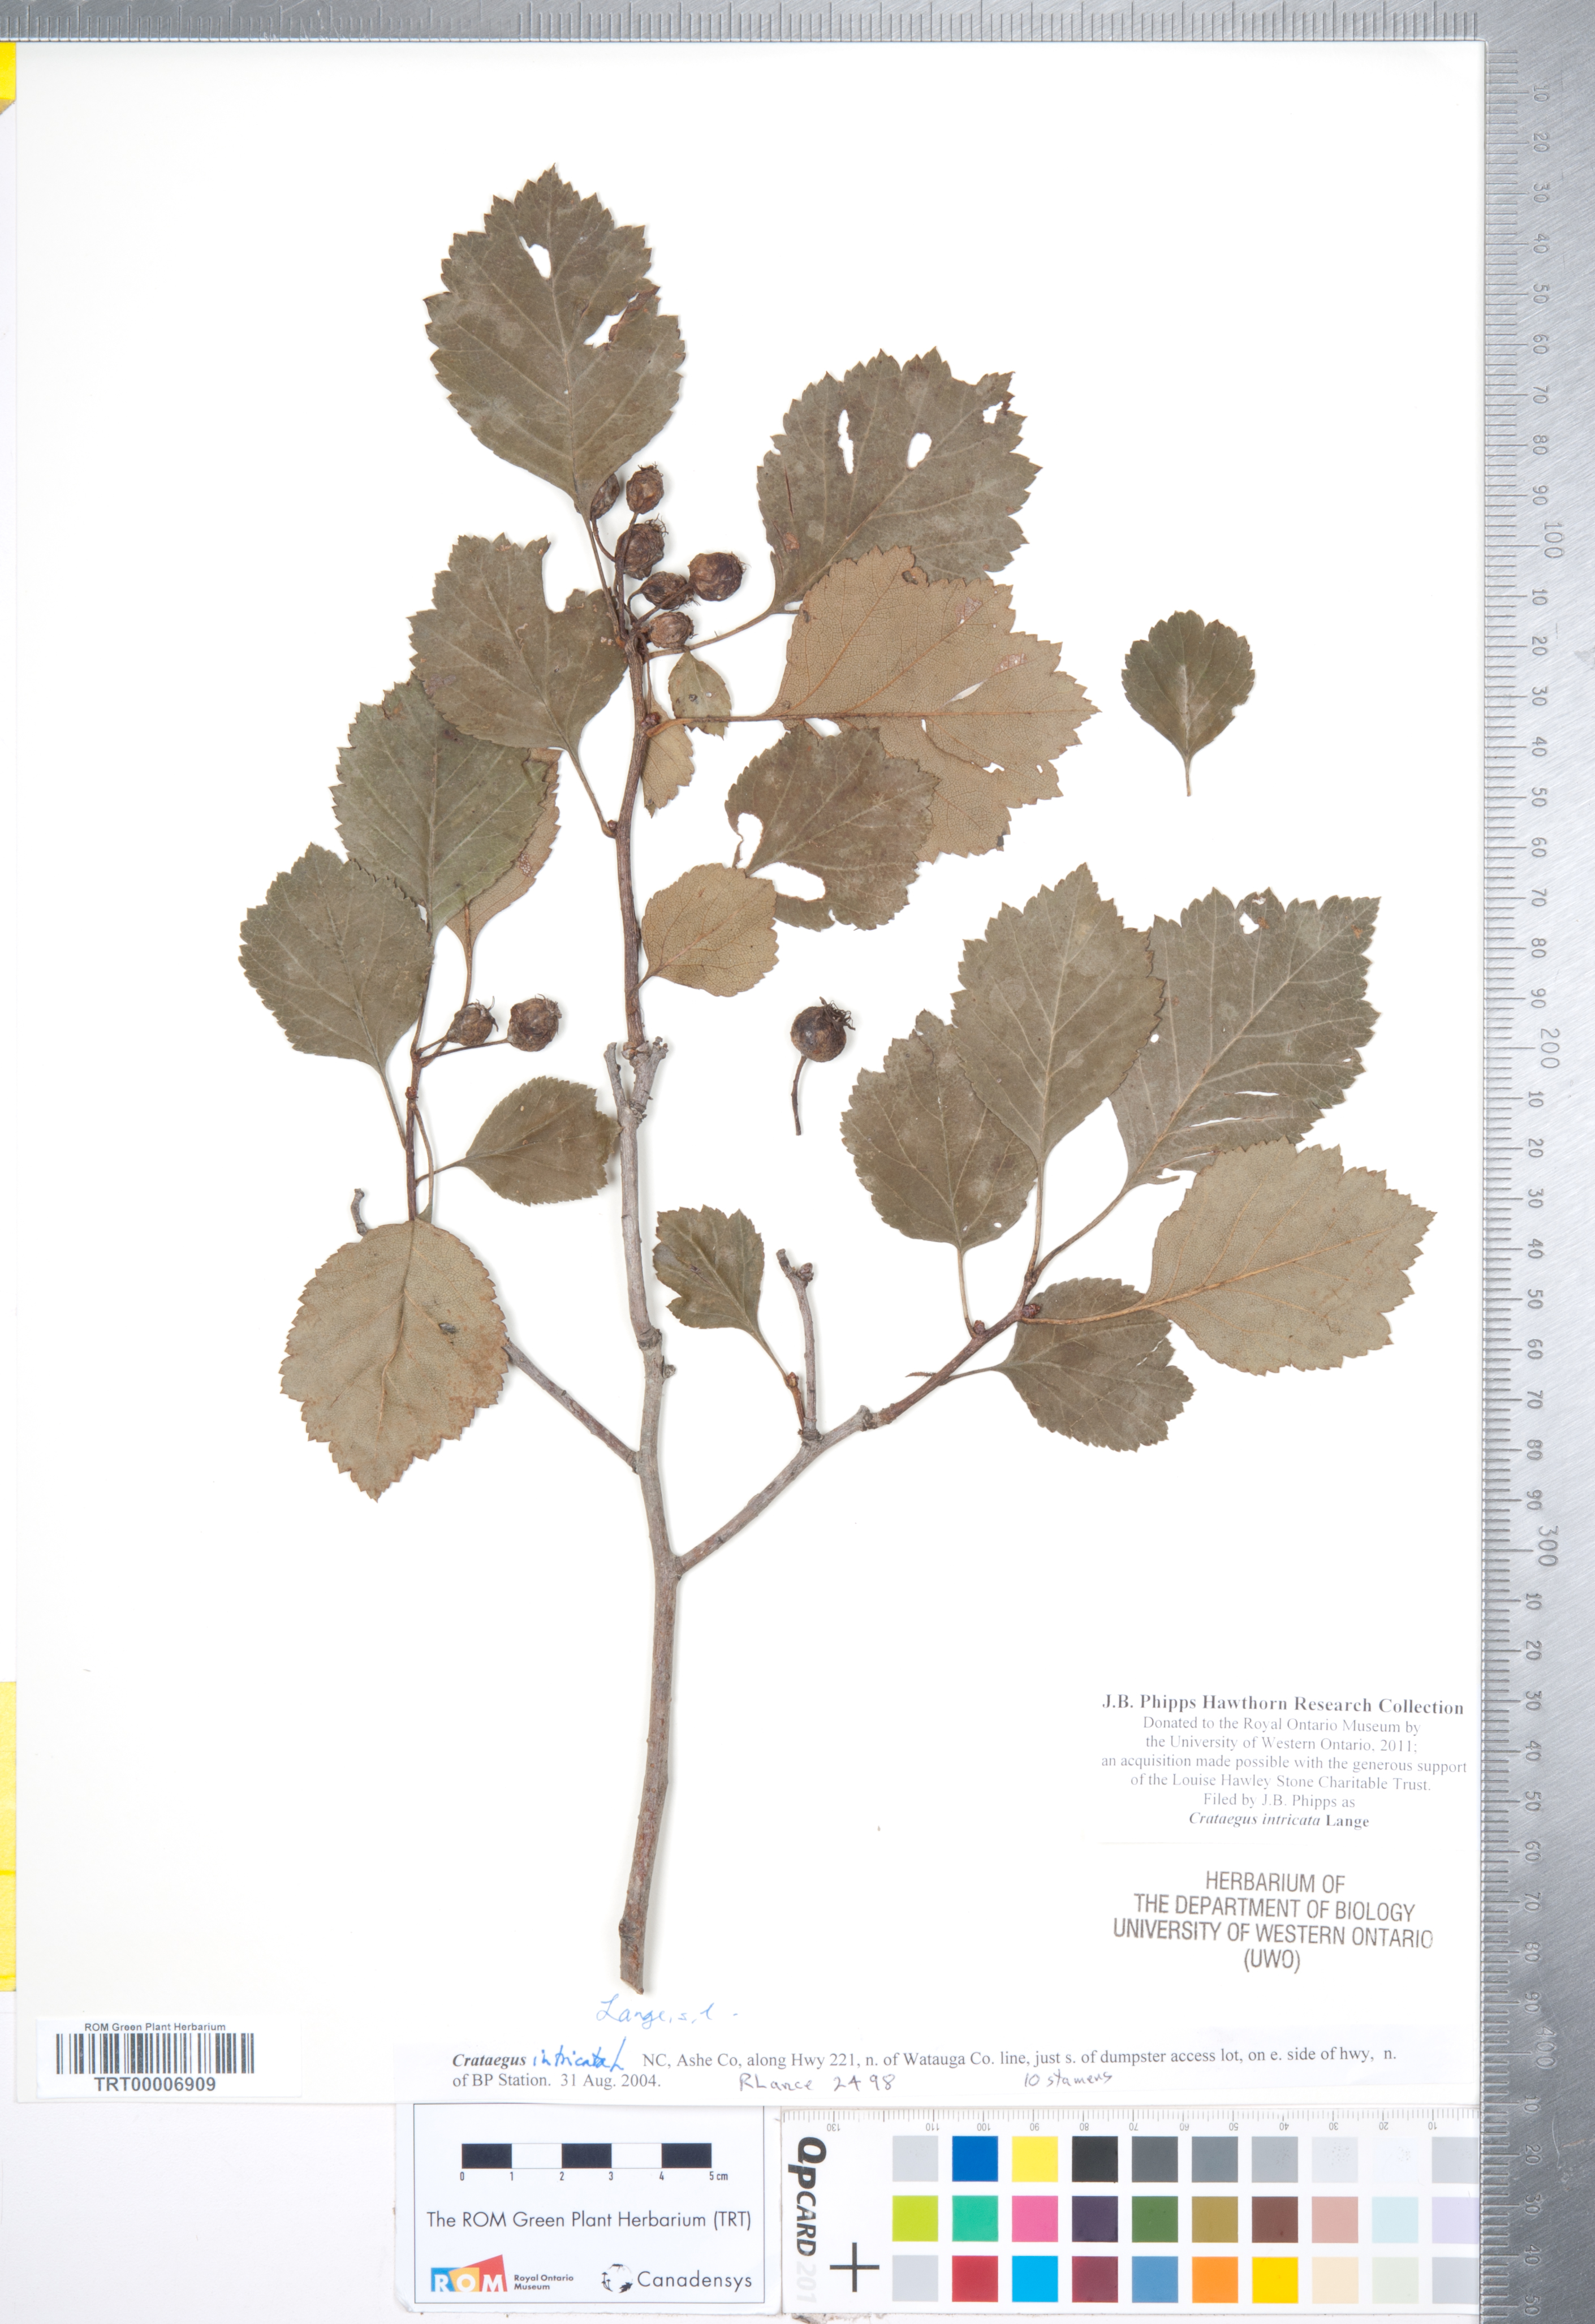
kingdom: Plantae
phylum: Tracheophyta
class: Magnoliopsida
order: Rosales
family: Rosaceae
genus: Crataegus
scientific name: Crataegus intricata
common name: Biltmore hawthorn
